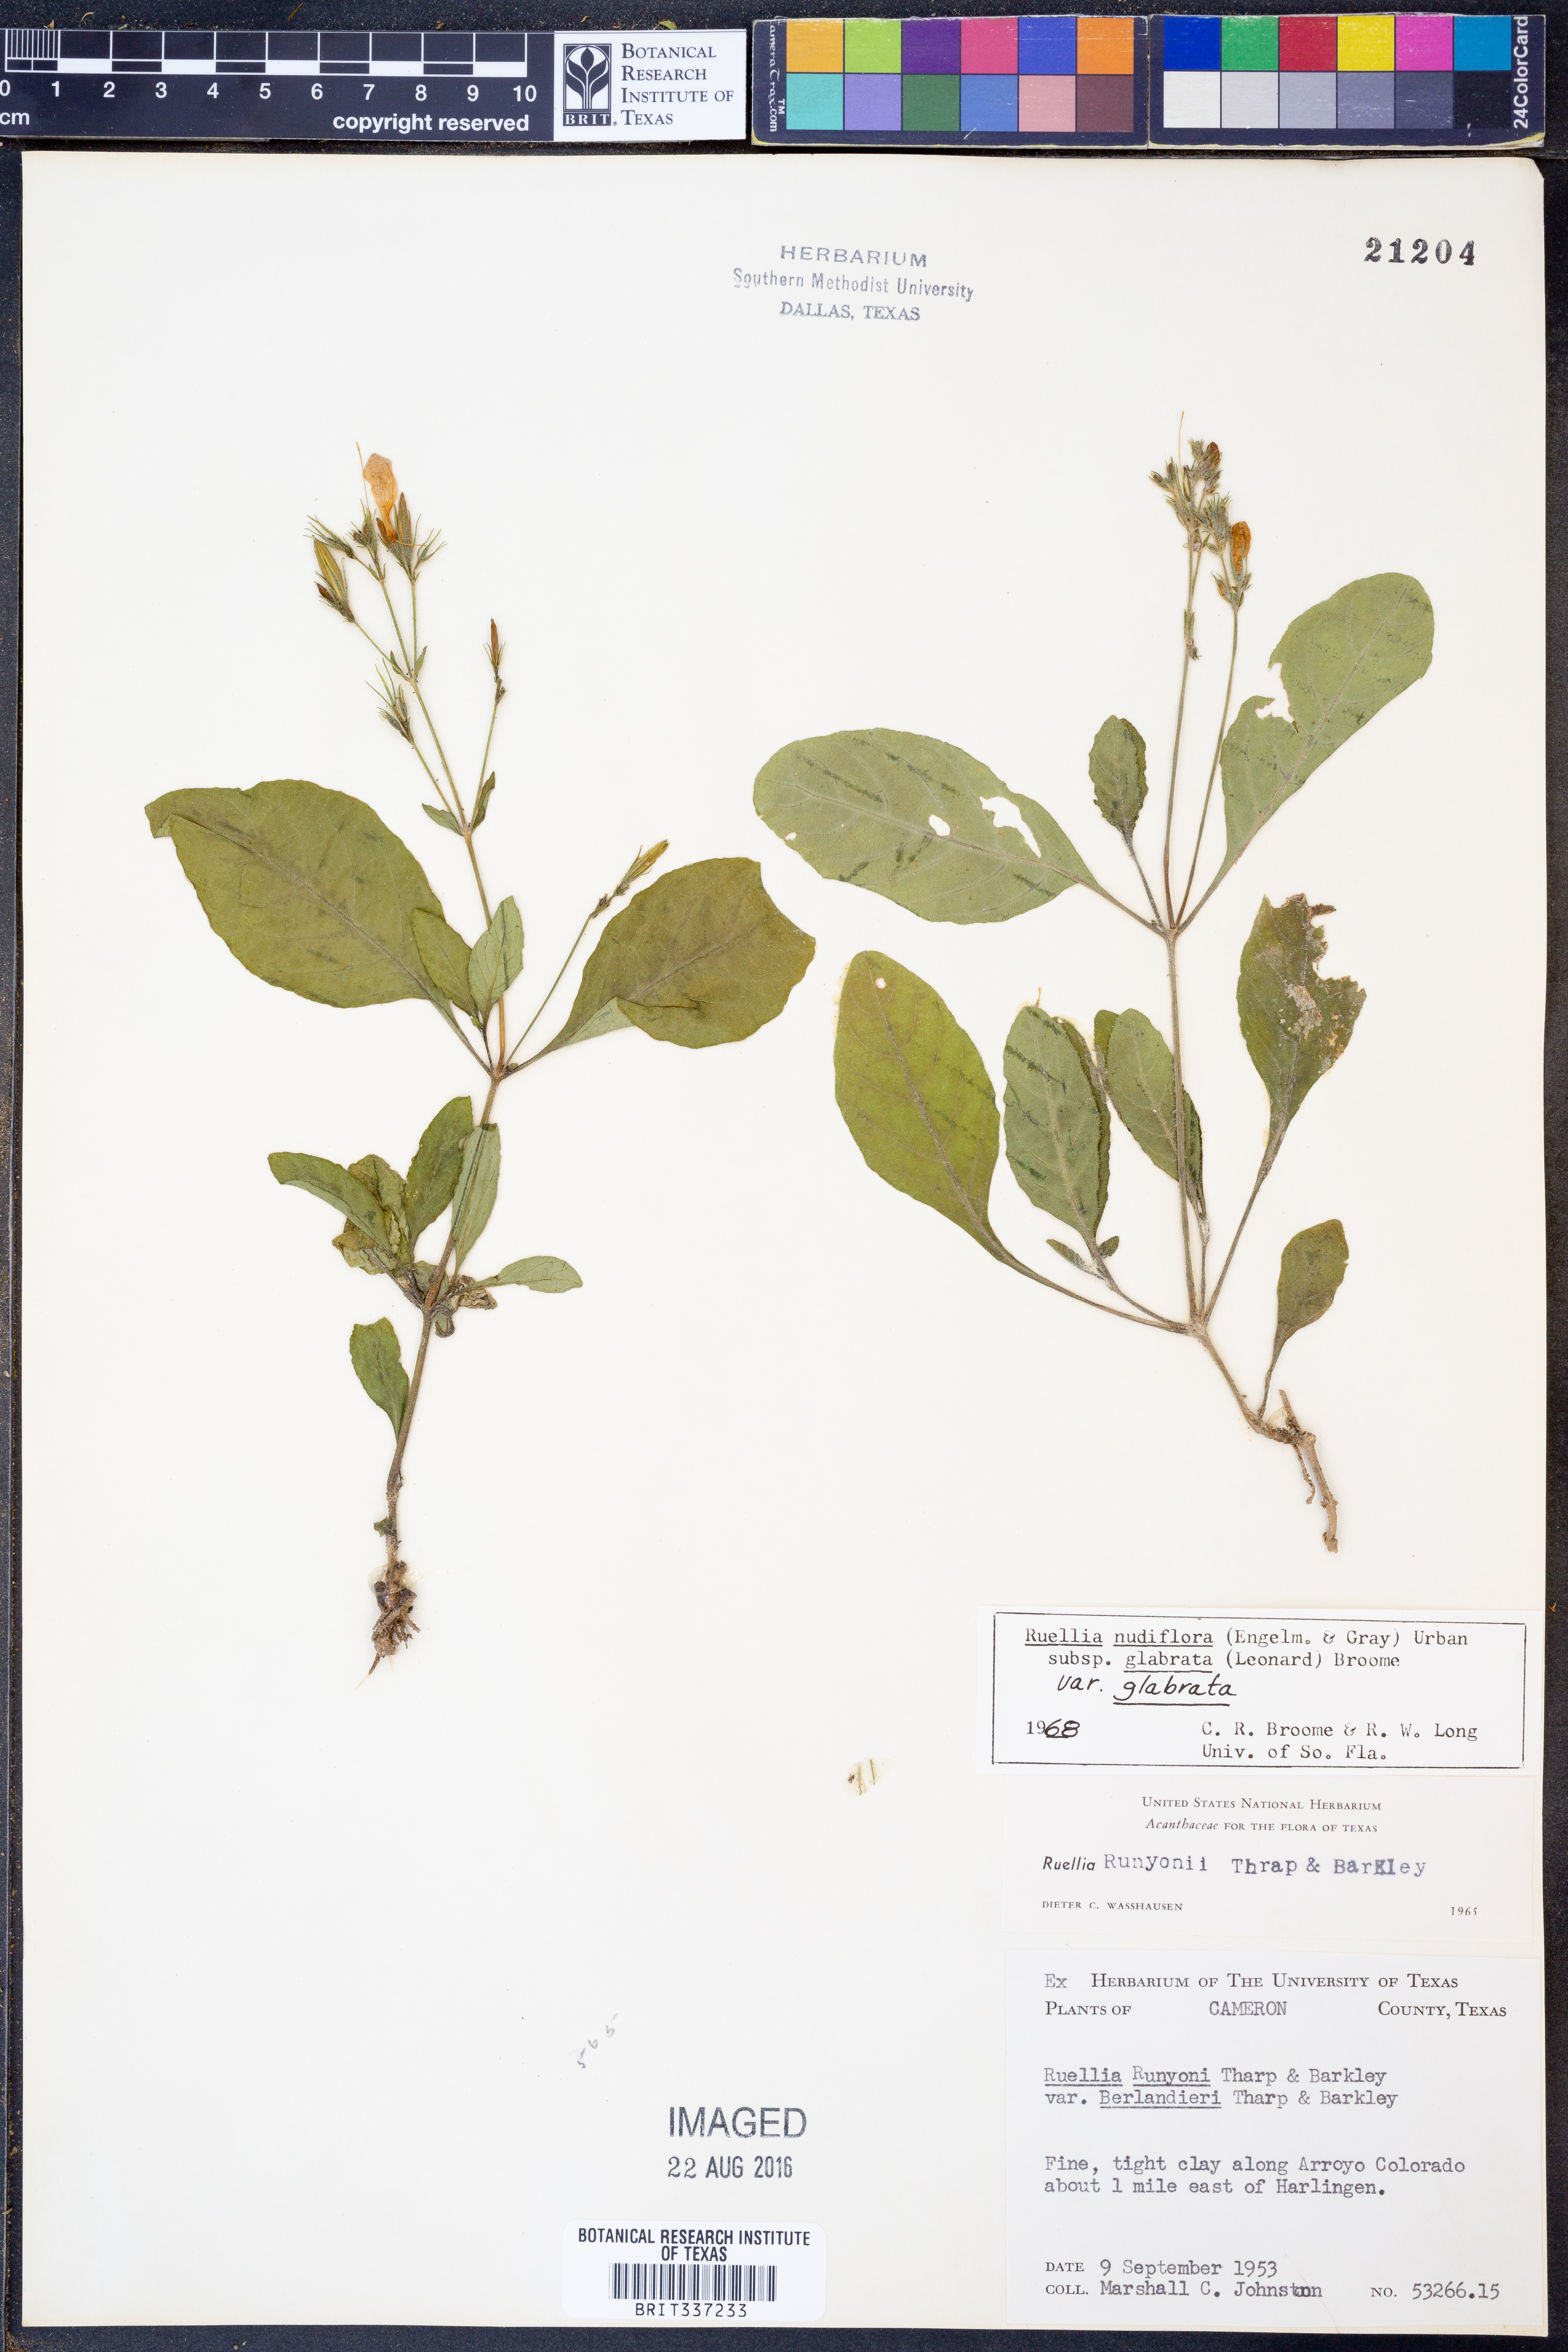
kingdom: Plantae
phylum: Tracheophyta
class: Magnoliopsida
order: Lamiales
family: Acanthaceae
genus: Ruellia
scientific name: Ruellia ciliatiflora
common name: Hairyflower wild petunia
